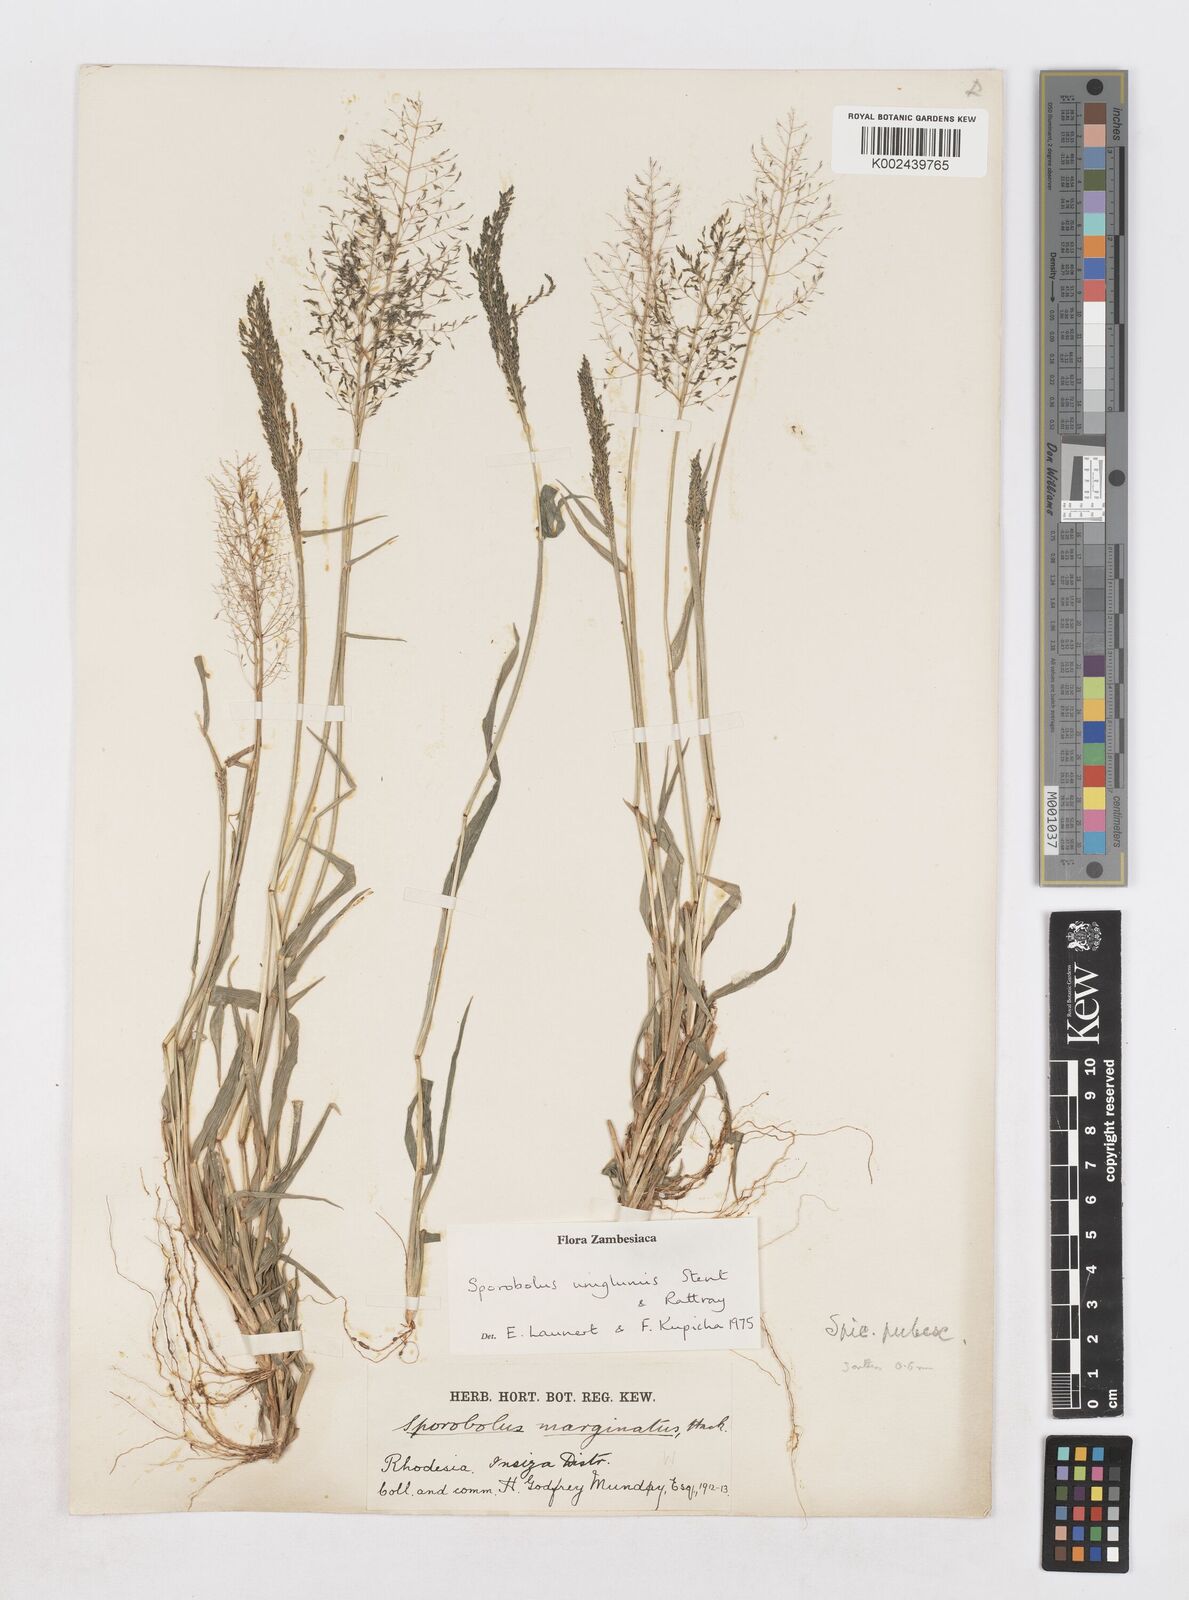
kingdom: Plantae
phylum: Tracheophyta
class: Liliopsida
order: Poales
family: Poaceae
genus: Sporobolus
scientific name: Sporobolus uniglumis
